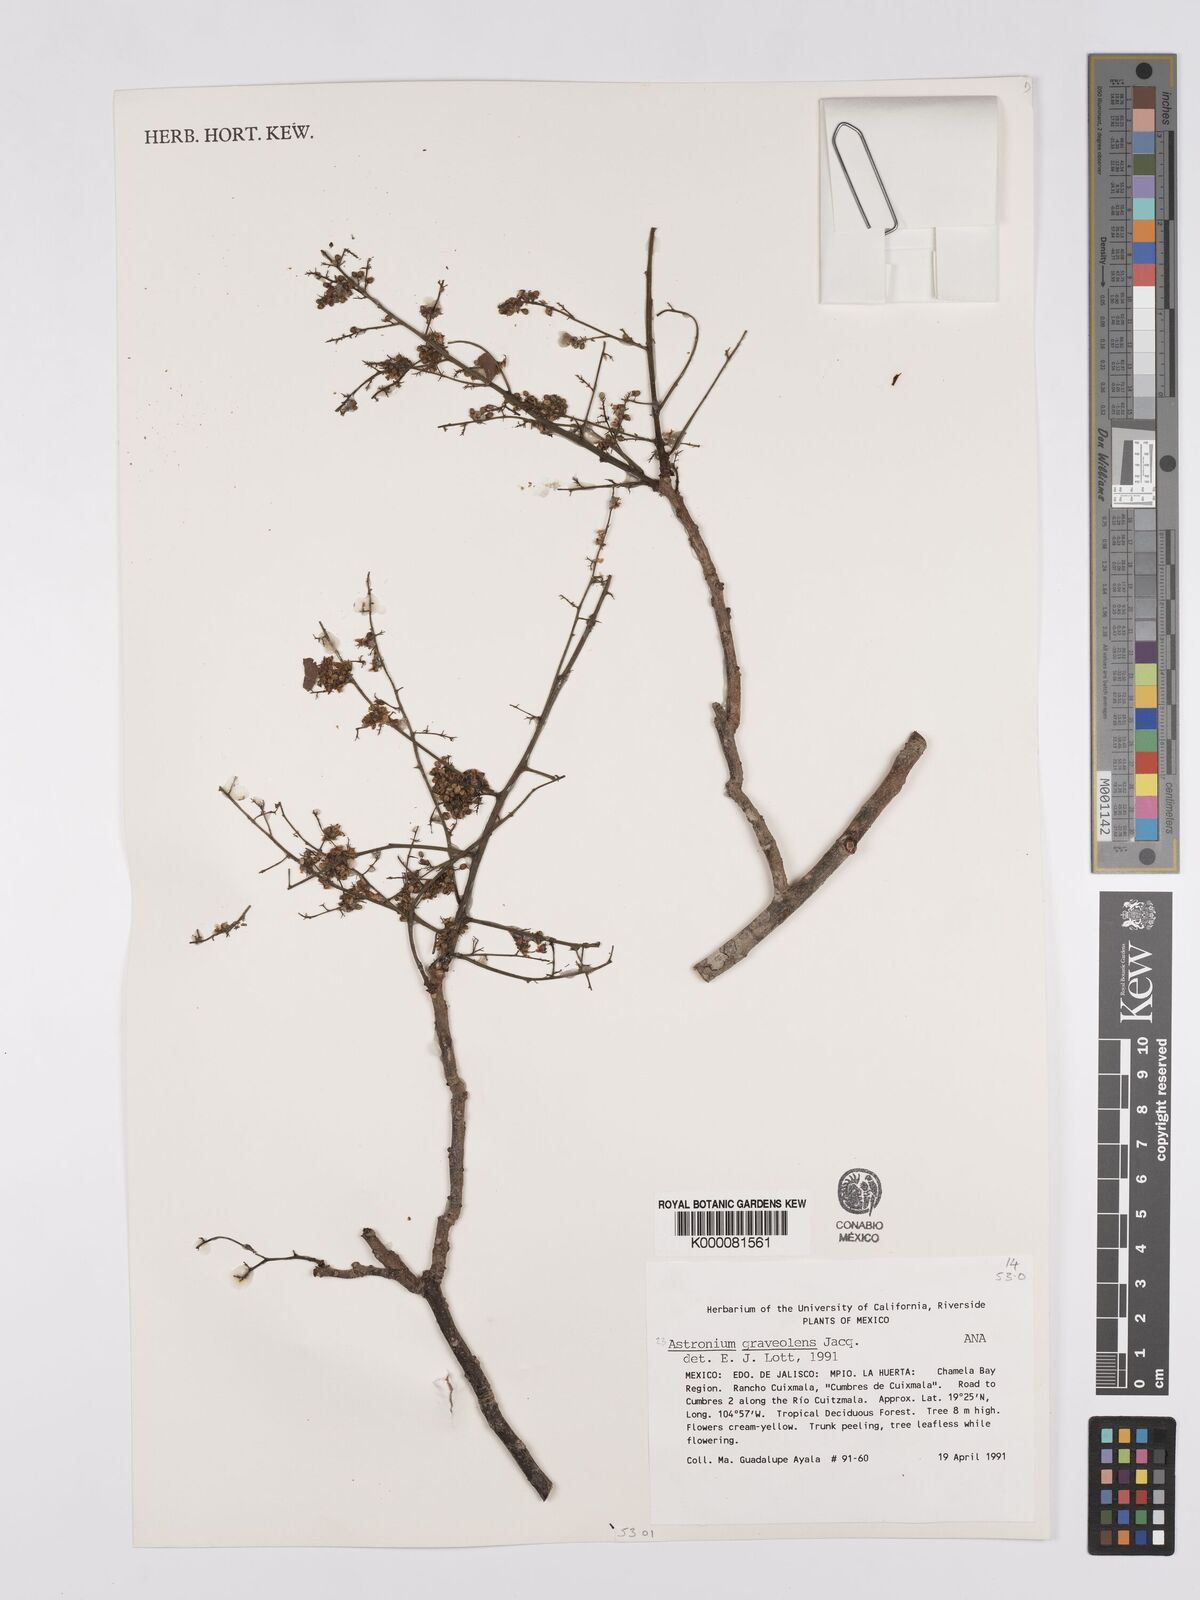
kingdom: Plantae
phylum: Tracheophyta
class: Magnoliopsida
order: Sapindales
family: Anacardiaceae
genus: Astronium
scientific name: Astronium graveolens
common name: Glassywood
